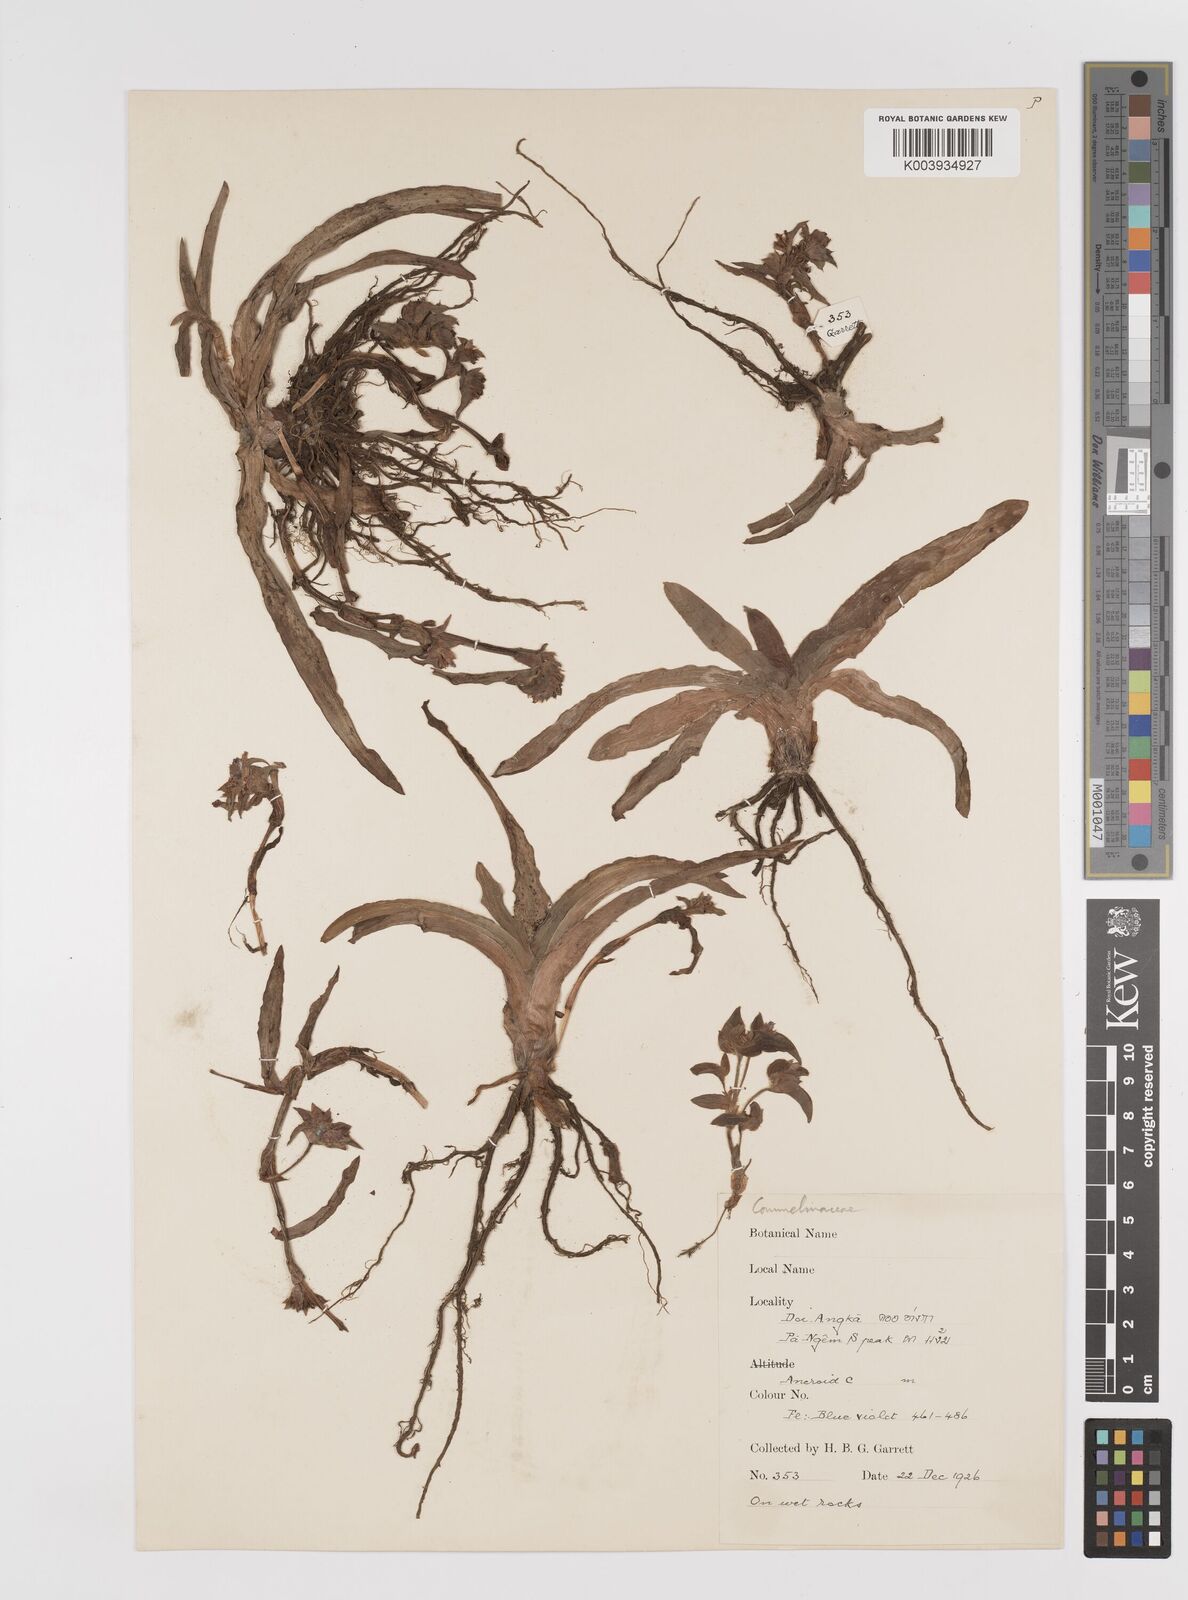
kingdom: Plantae
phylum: Tracheophyta
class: Liliopsida
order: Commelinales
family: Commelinaceae
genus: Cyanotis
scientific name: Cyanotis tuberosa
